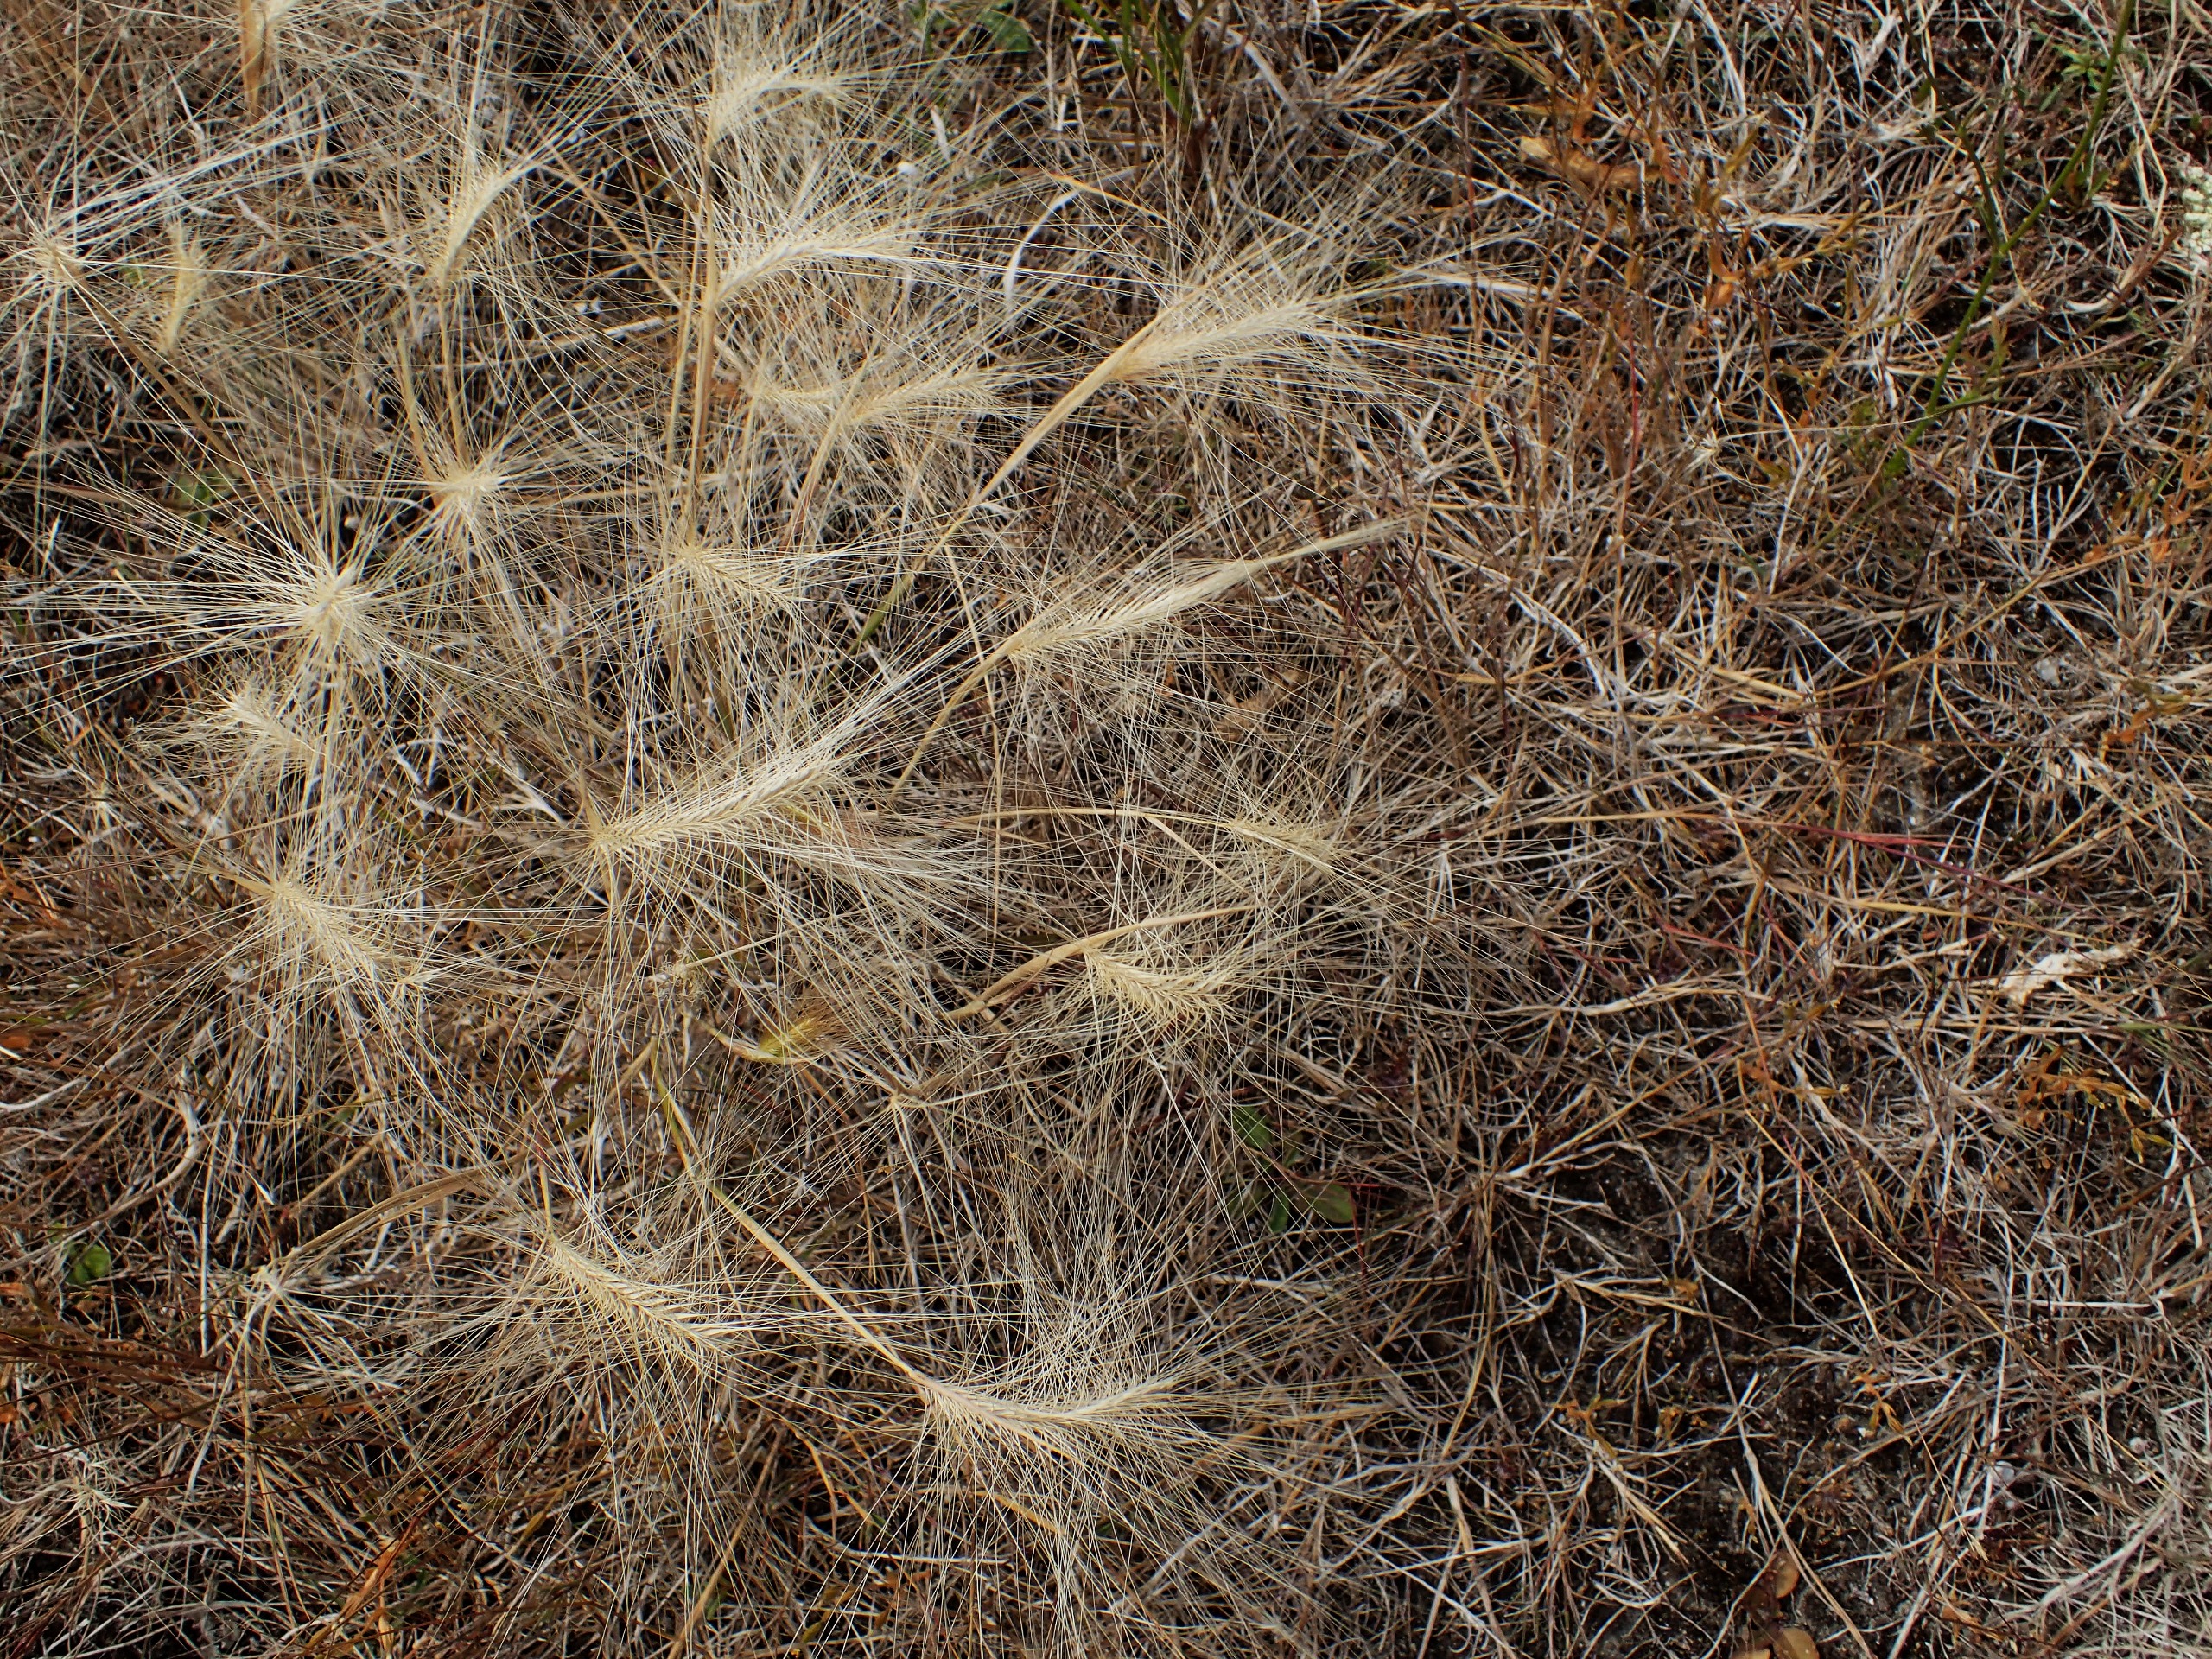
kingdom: Plantae
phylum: Tracheophyta
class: Liliopsida
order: Poales
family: Poaceae
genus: Hordeum
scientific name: Hordeum jubatum
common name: Egernhale-byg
